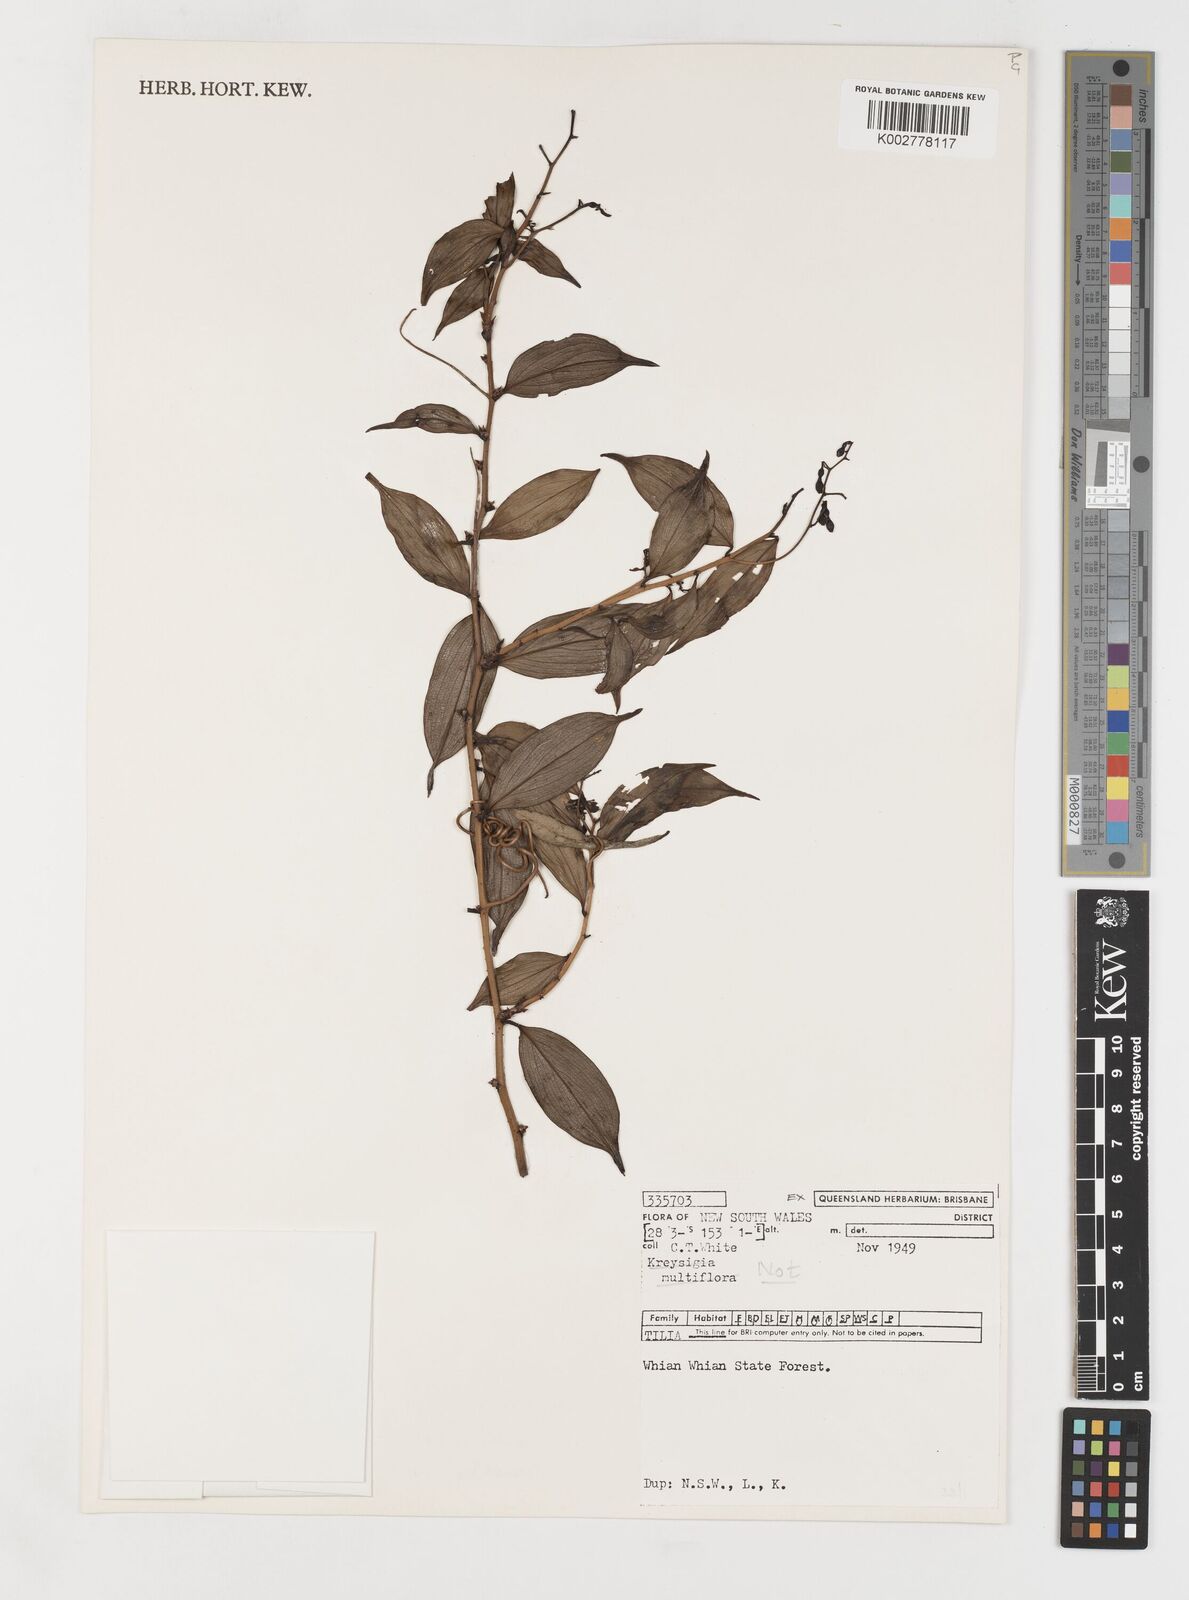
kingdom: Plantae
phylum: Tracheophyta
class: Liliopsida
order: Liliales
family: Petermanniaceae
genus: Petermannia
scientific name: Petermannia cirrosa
